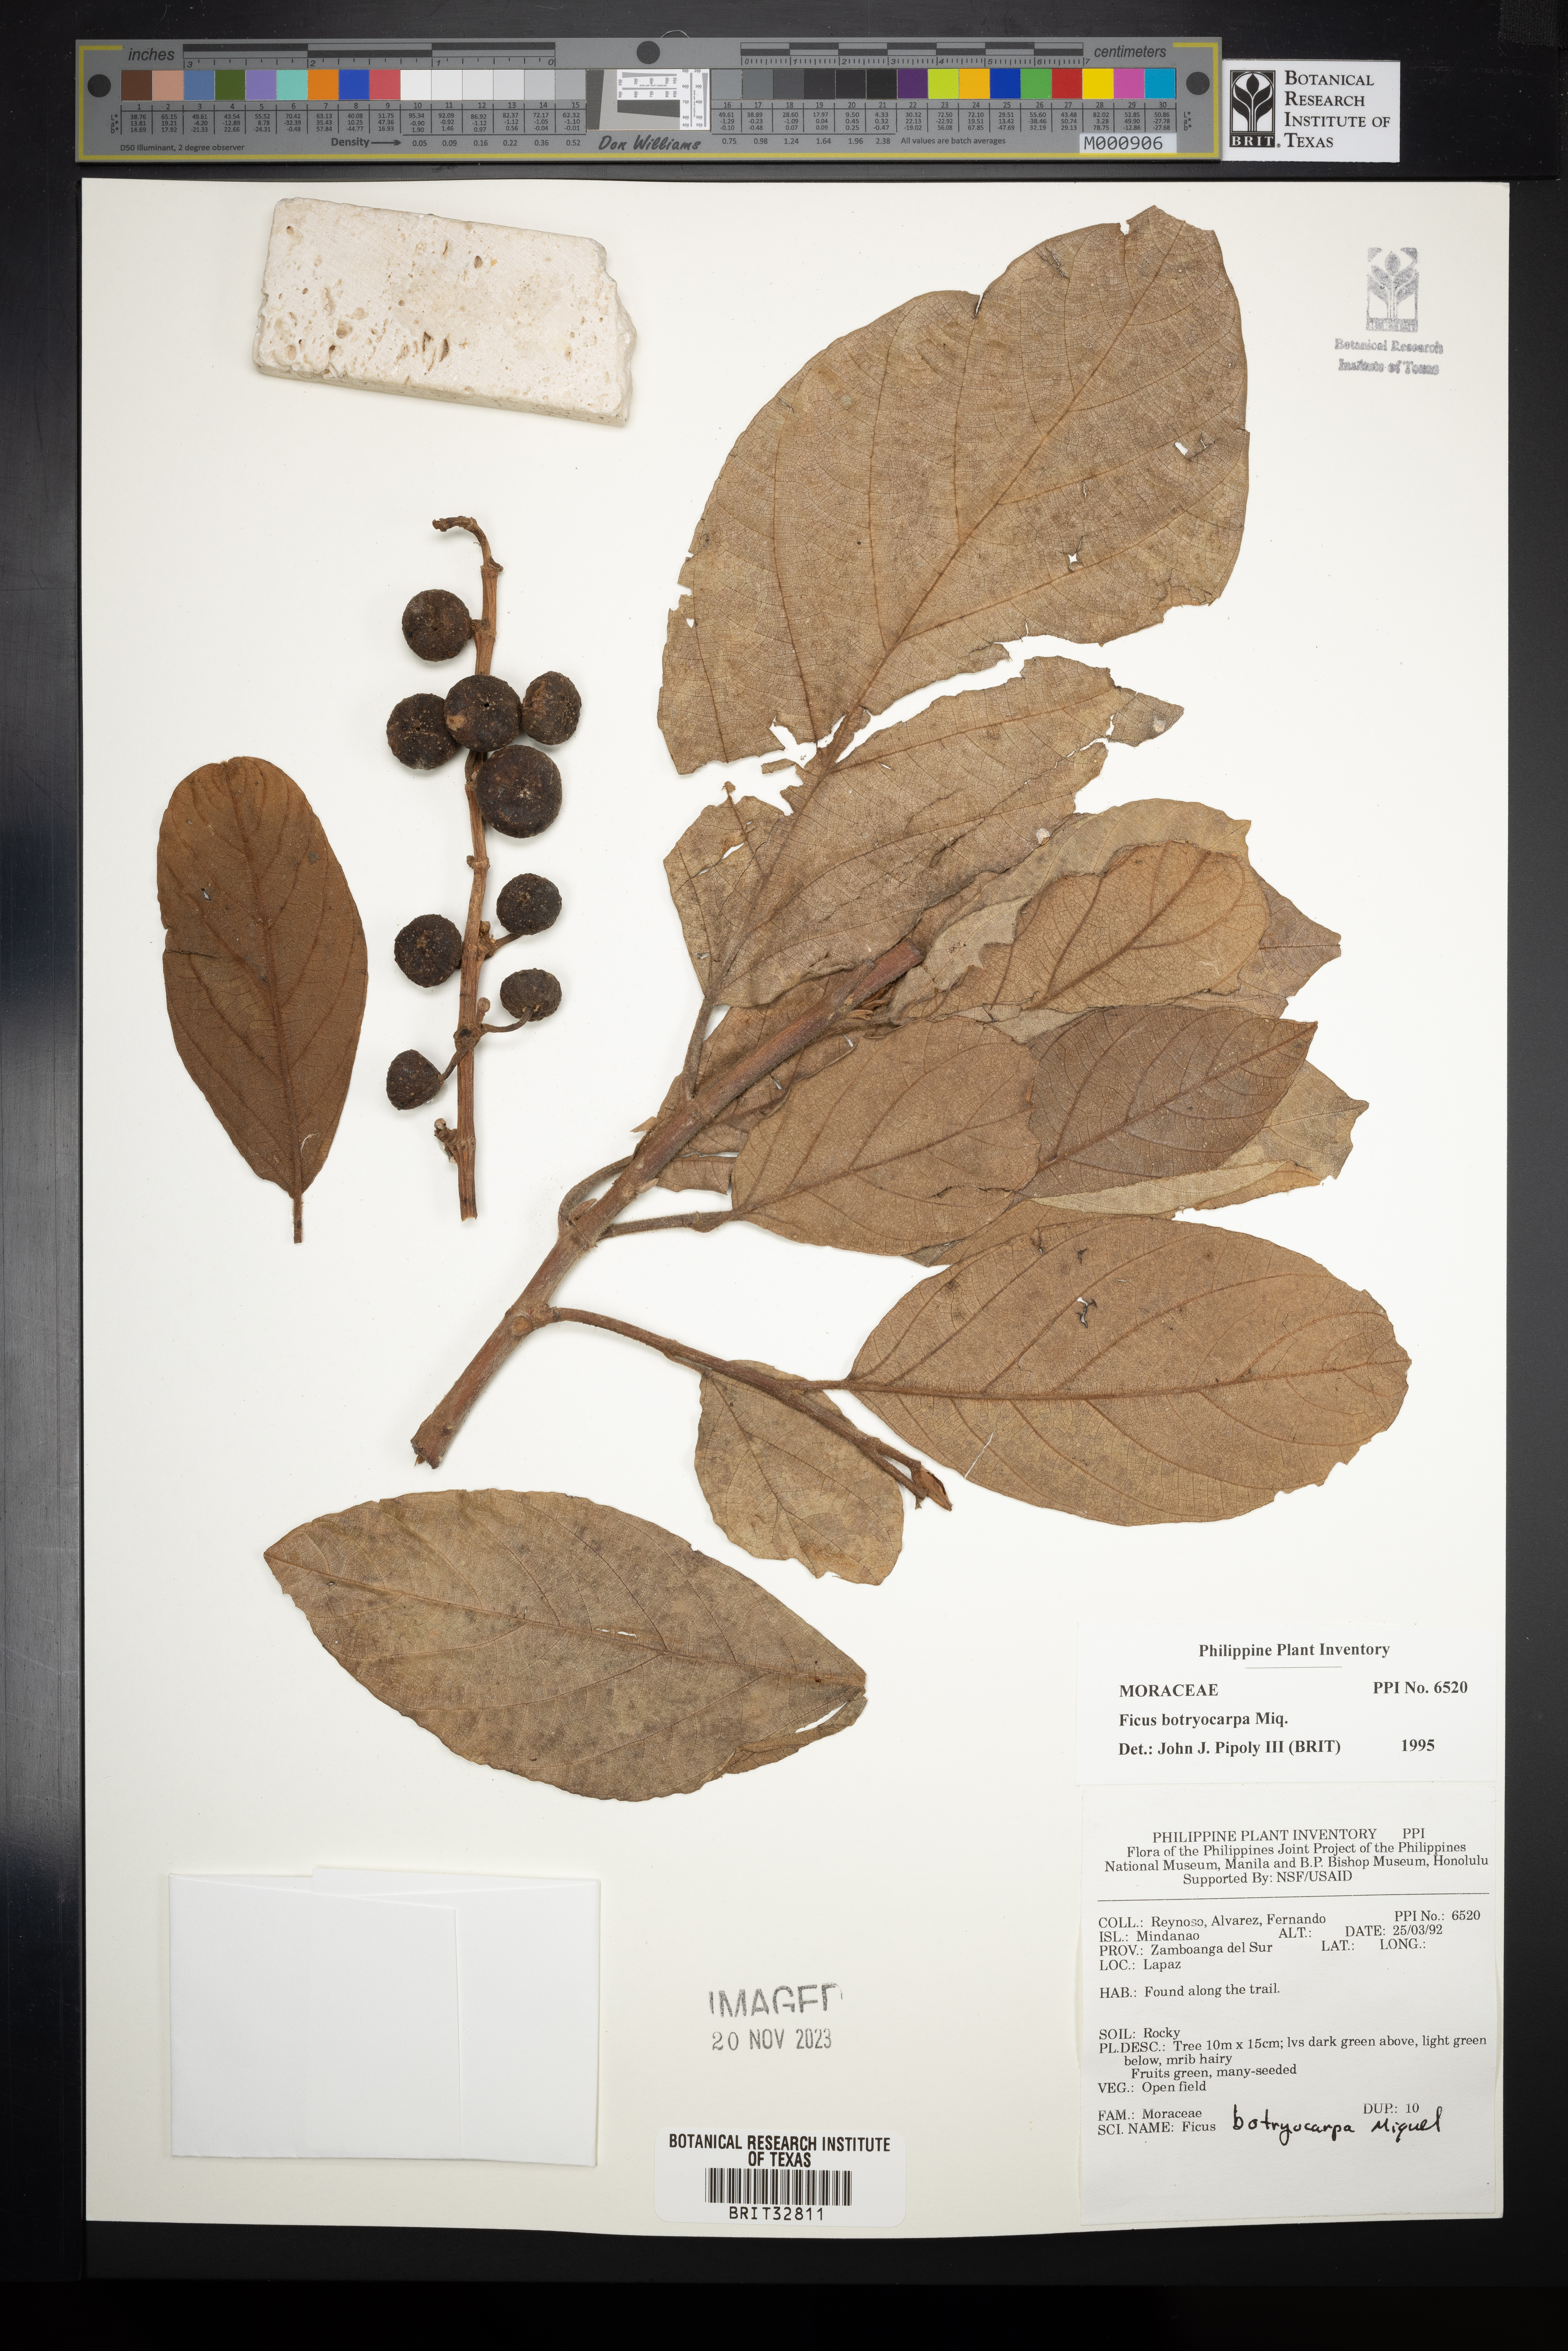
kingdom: Plantae
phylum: Tracheophyta
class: Magnoliopsida
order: Rosales
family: Moraceae
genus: Ficus
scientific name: Ficus botryocarpa
